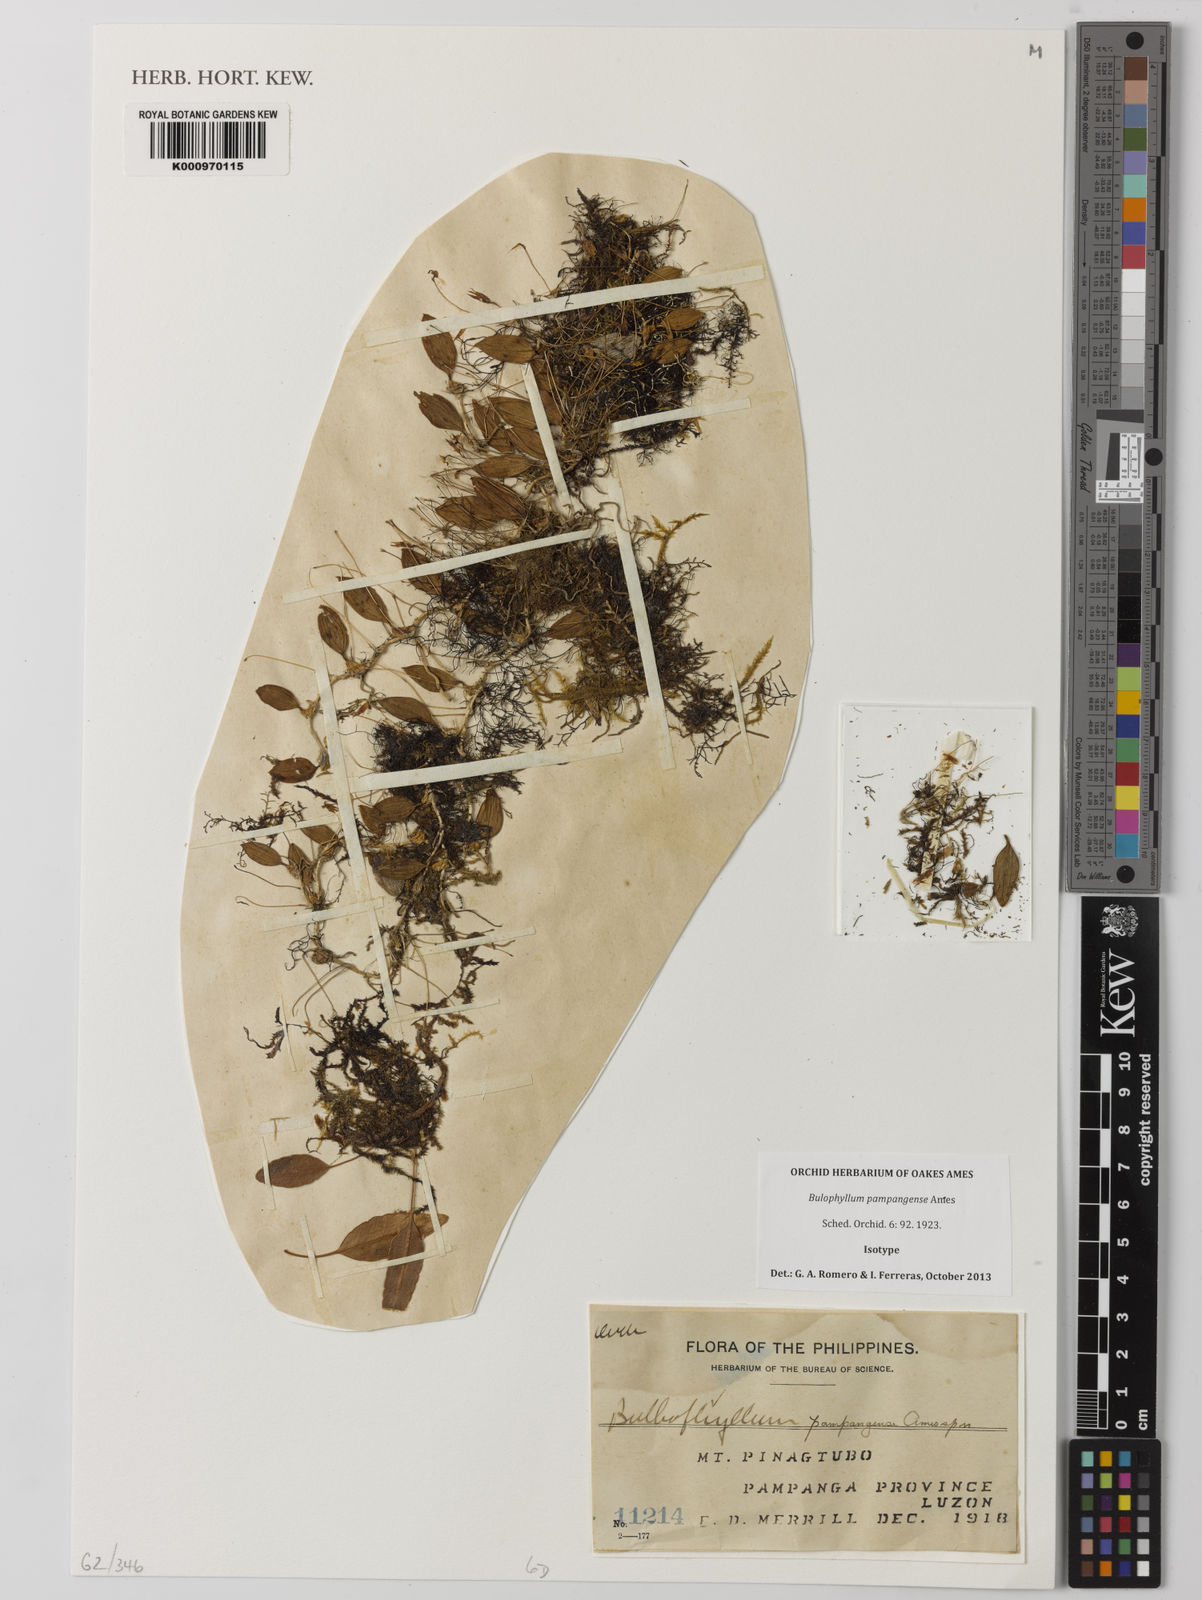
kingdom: Plantae
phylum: Tracheophyta
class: Liliopsida
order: Asparagales
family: Orchidaceae
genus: Bulbophyllum
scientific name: Bulbophyllum pampangense
